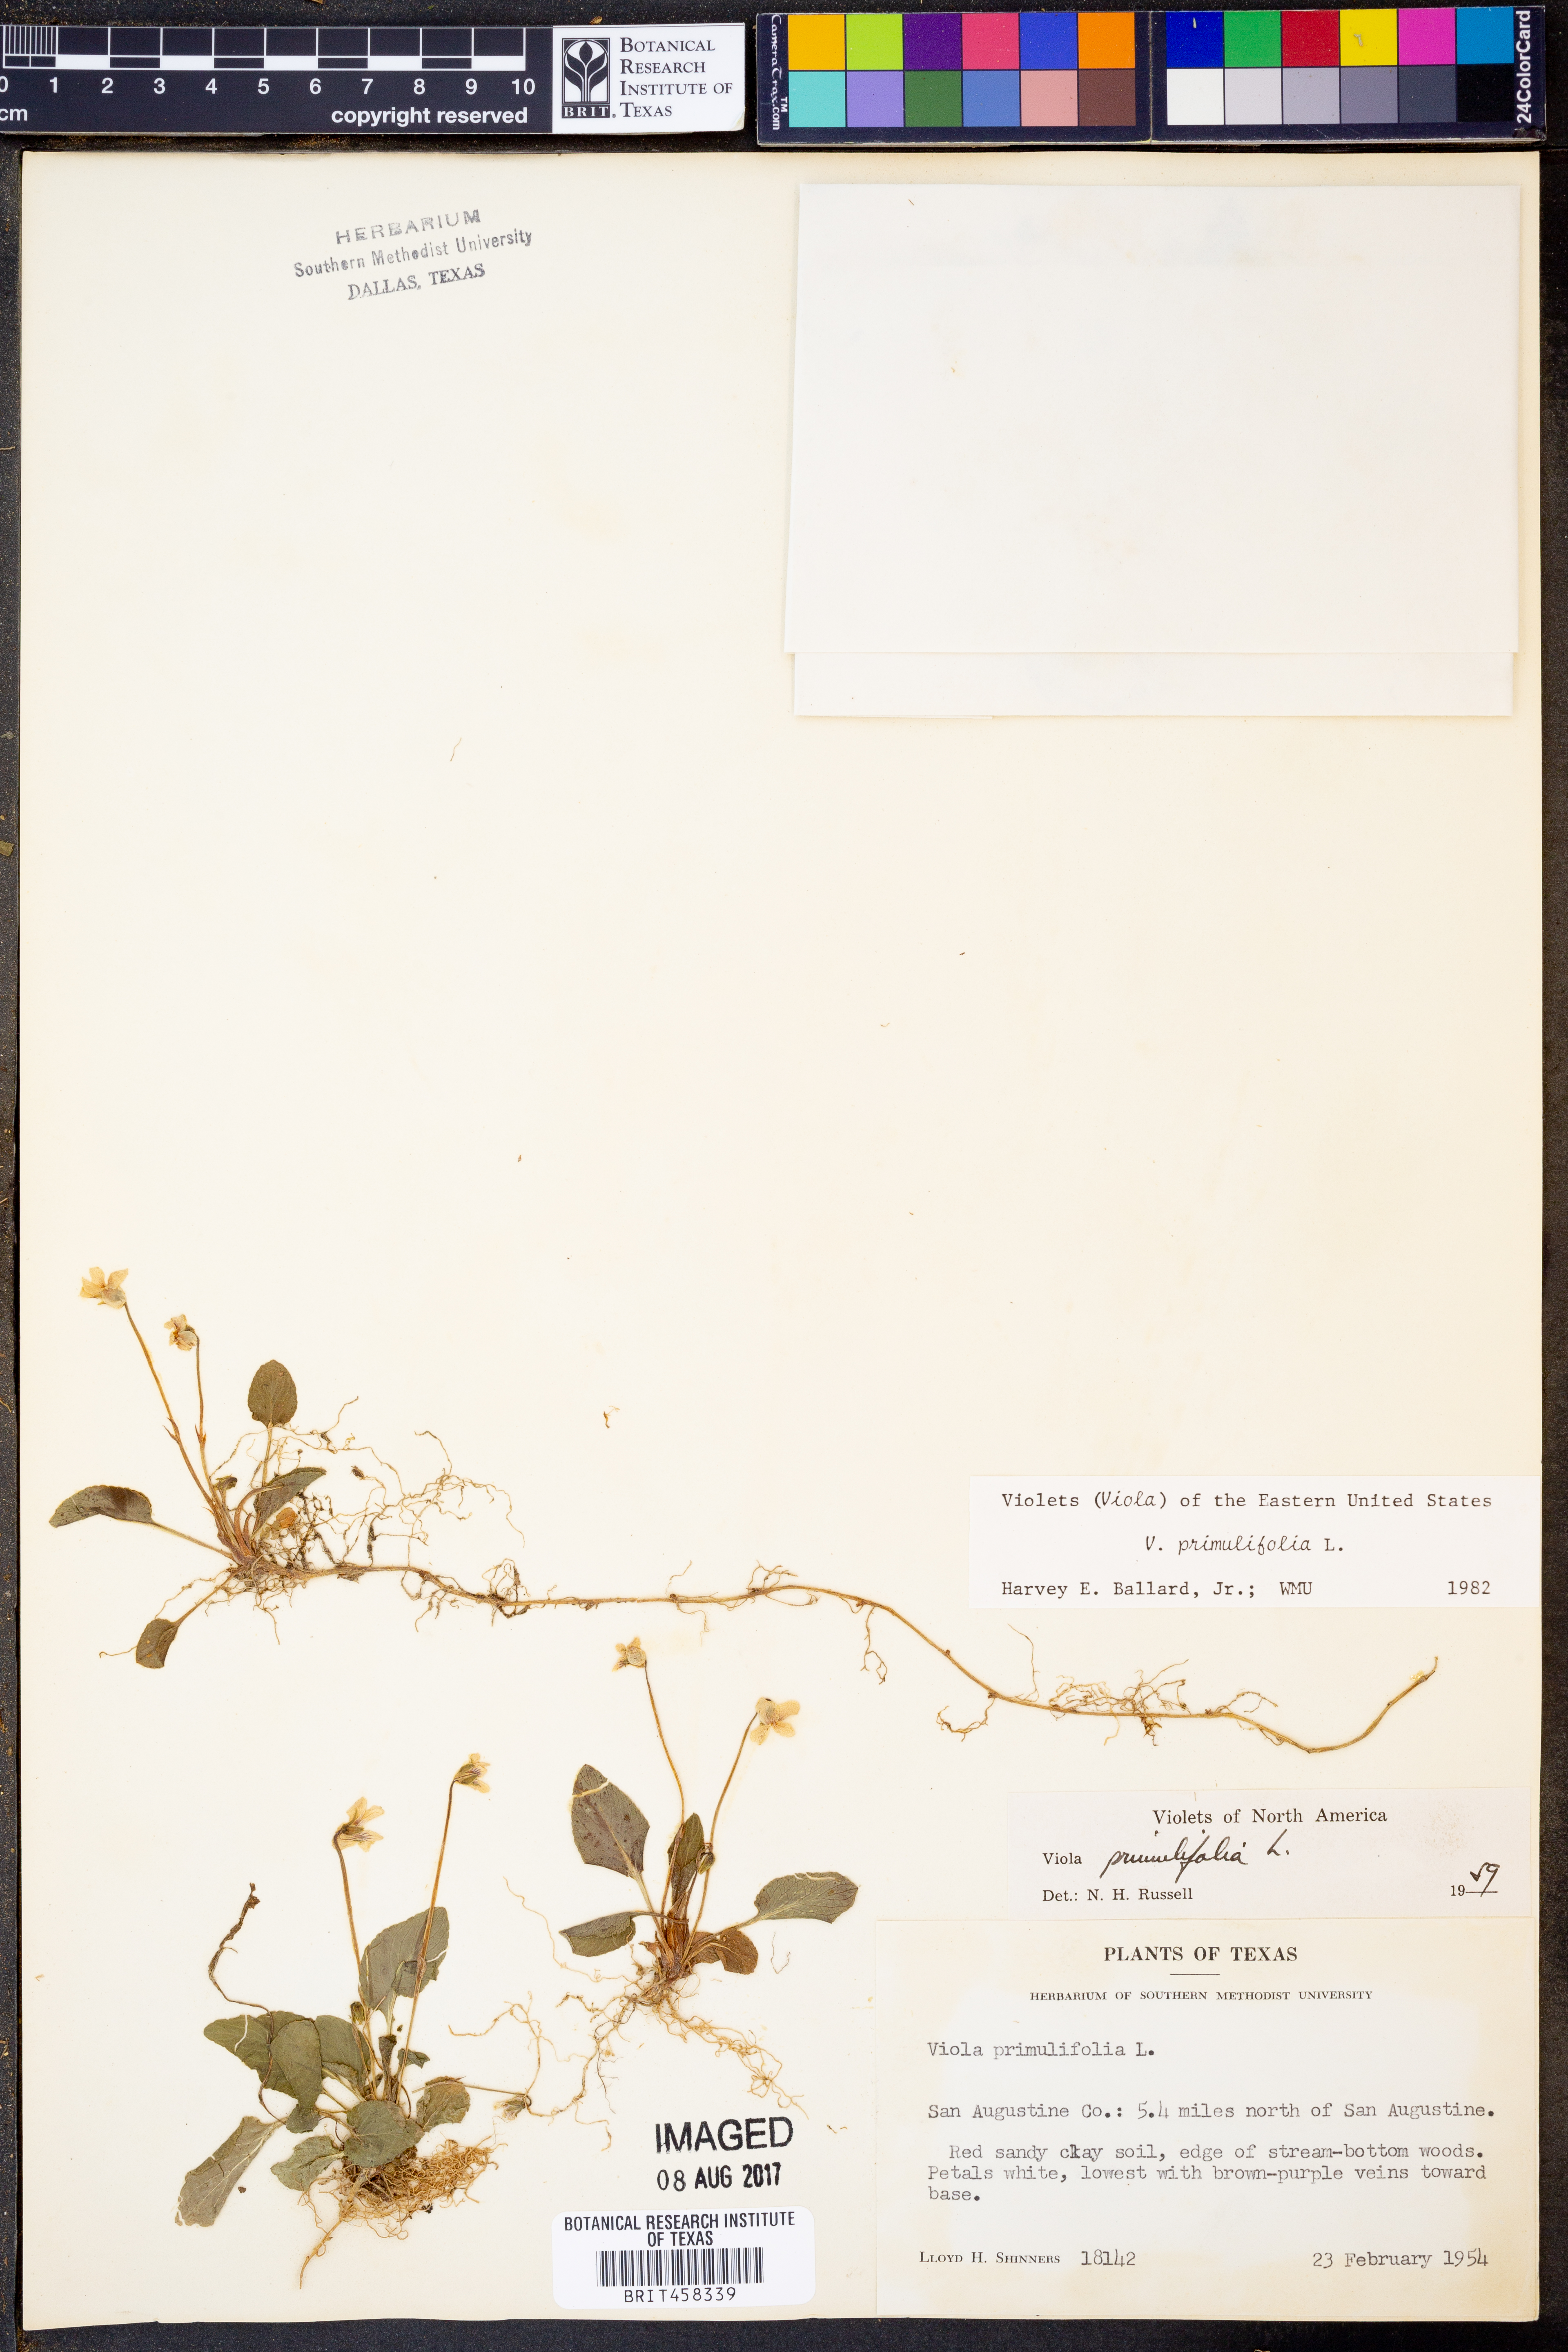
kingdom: Plantae
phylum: Tracheophyta
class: Magnoliopsida
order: Malpighiales
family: Violaceae
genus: Viola
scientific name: Viola primulifolia
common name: Primrose-leaf violet
